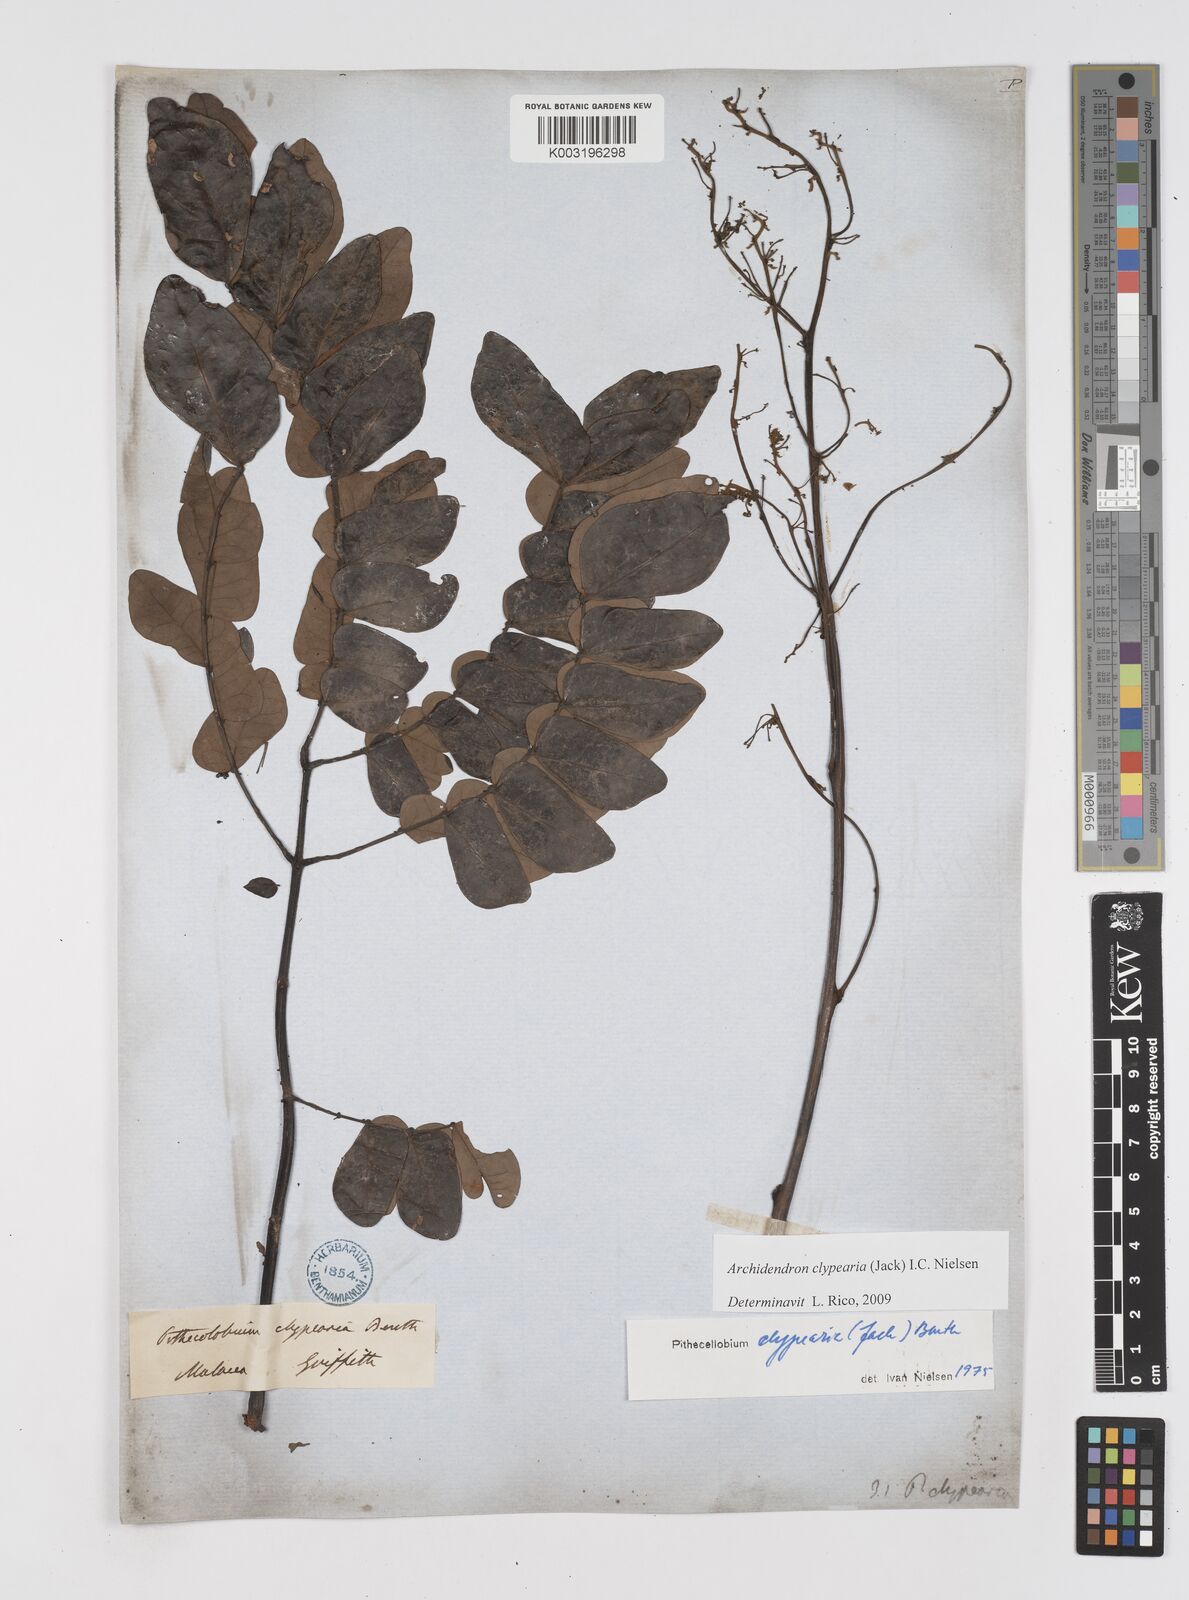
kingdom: Plantae
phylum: Tracheophyta
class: Magnoliopsida
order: Fabales
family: Fabaceae
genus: Archidendron
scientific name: Archidendron clypearia
